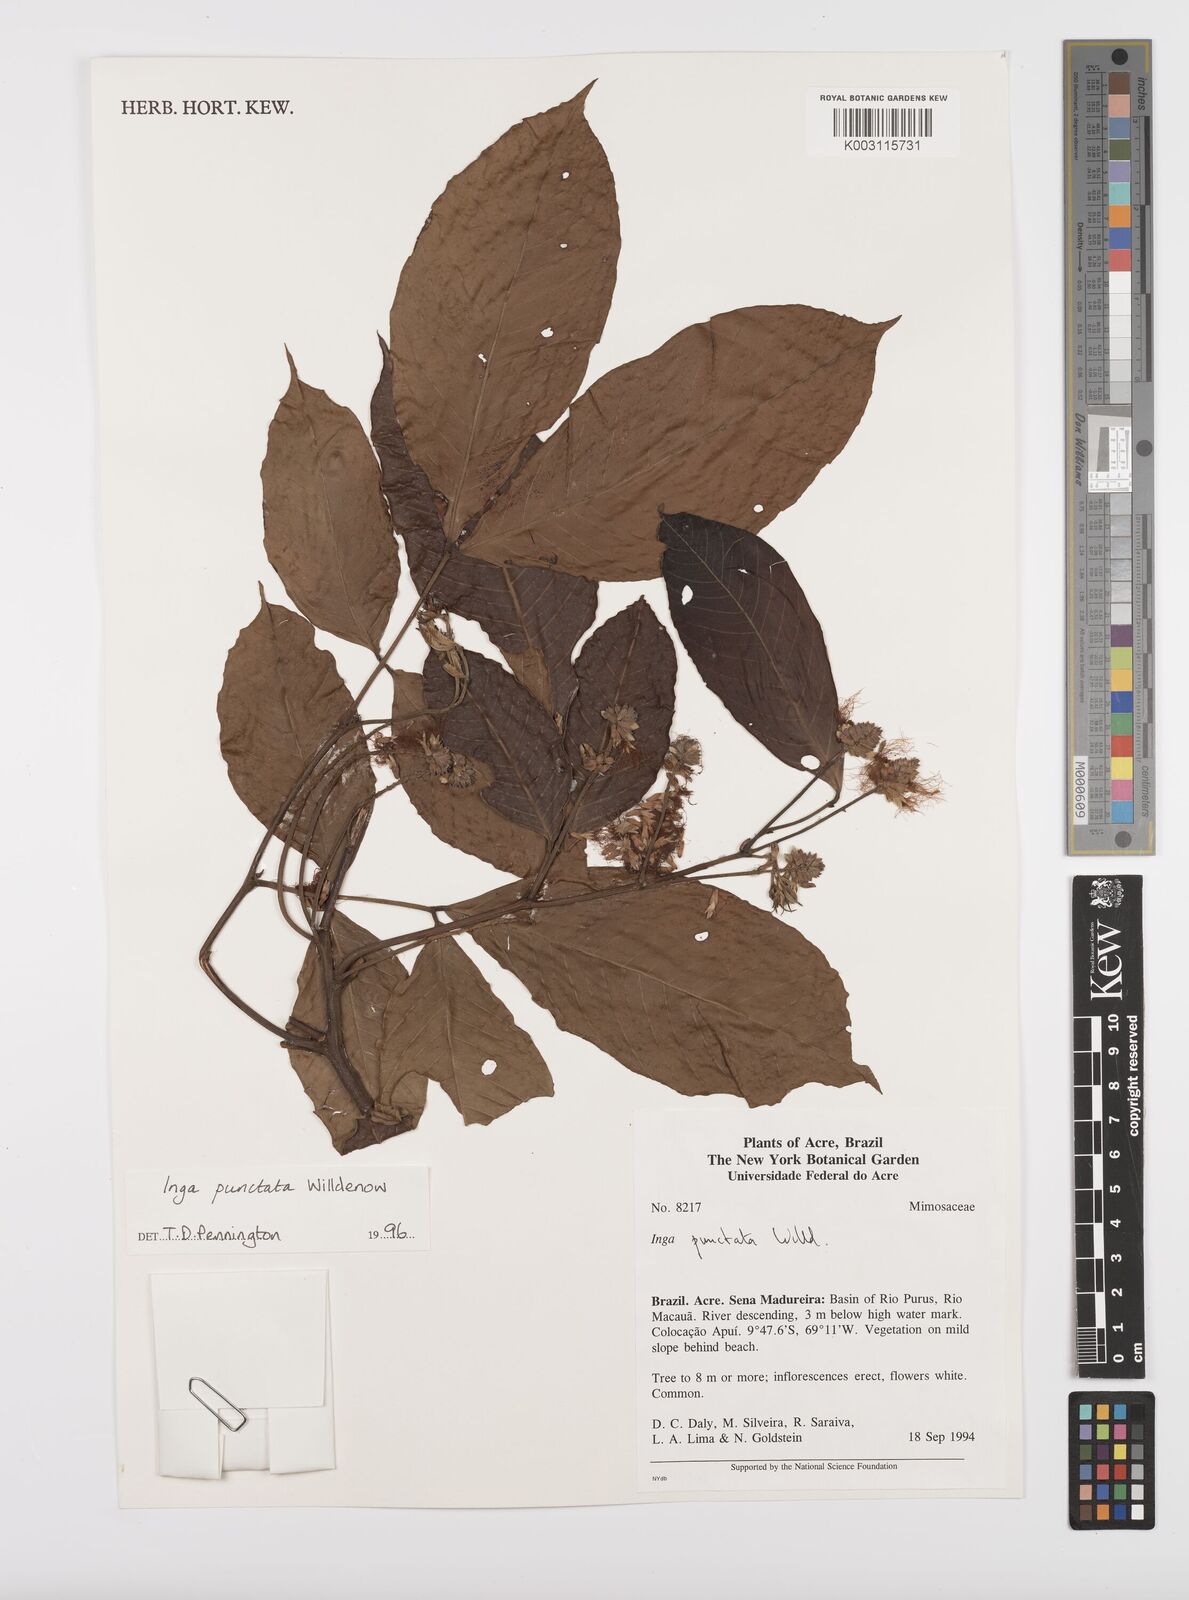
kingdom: Plantae
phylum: Tracheophyta
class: Magnoliopsida
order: Fabales
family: Fabaceae
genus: Inga
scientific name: Inga punctata
